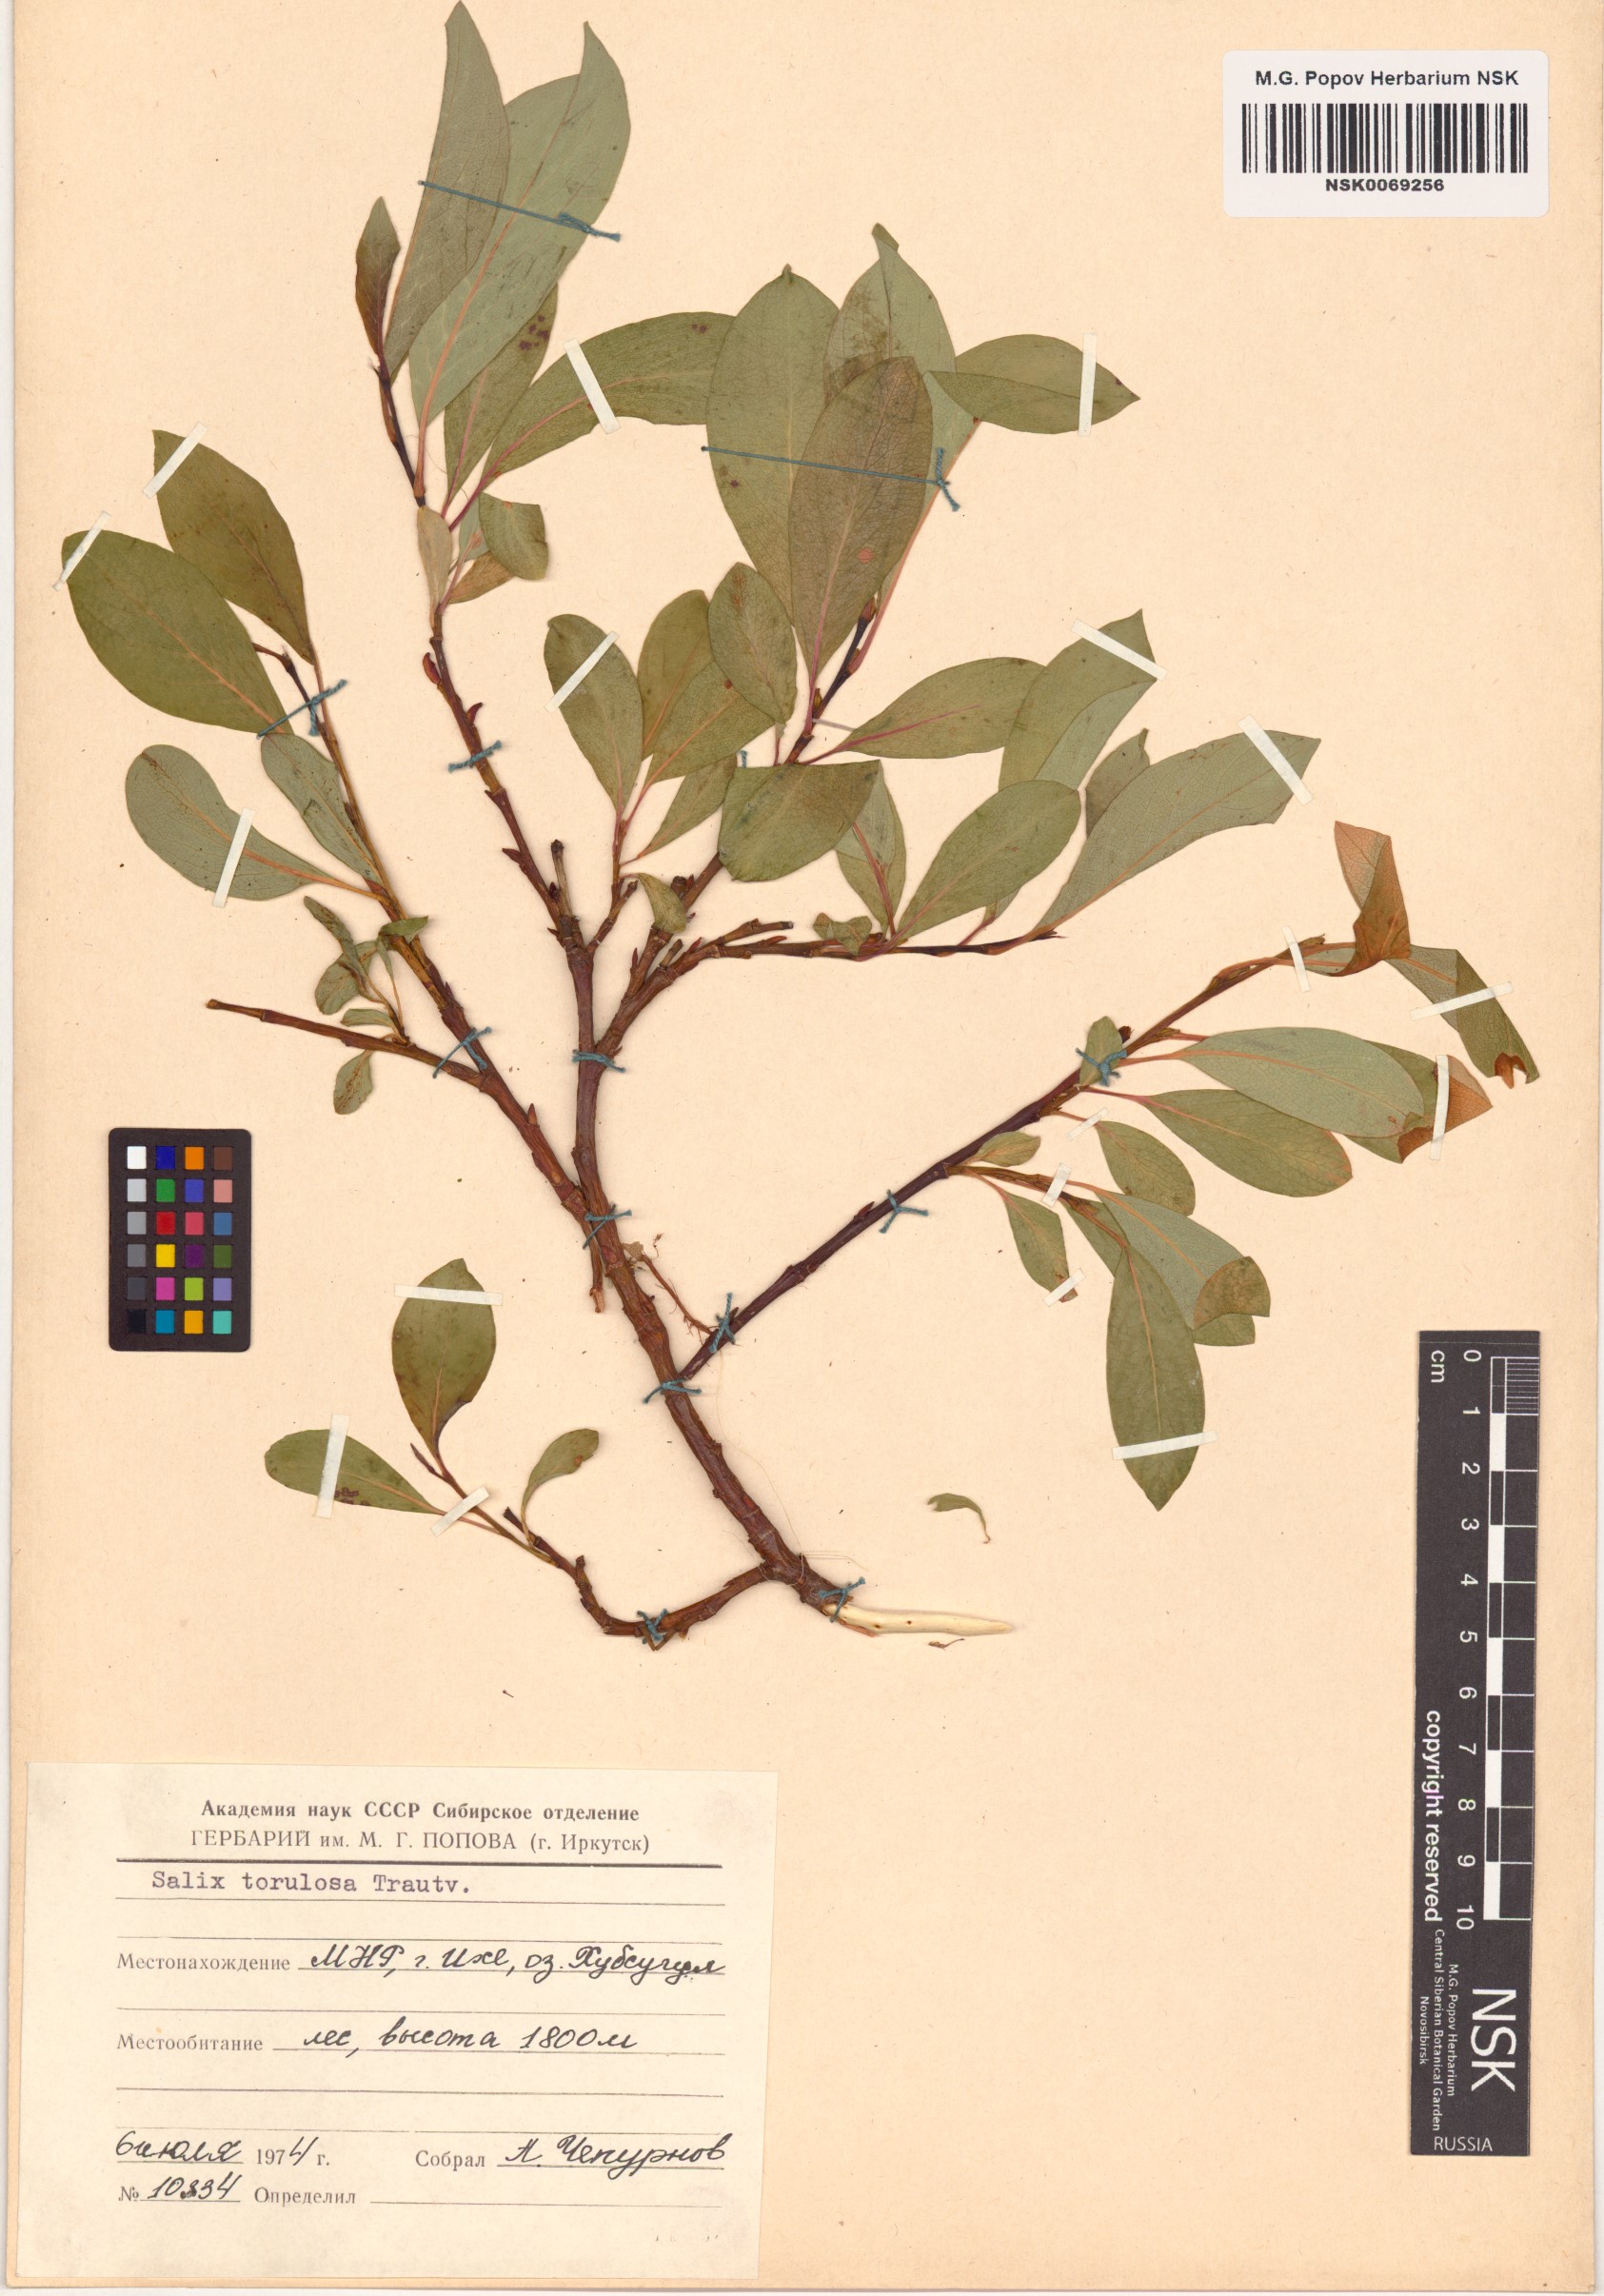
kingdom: Plantae
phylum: Tracheophyta
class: Magnoliopsida
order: Malpighiales
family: Salicaceae
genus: Salix
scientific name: Salix torulosa
